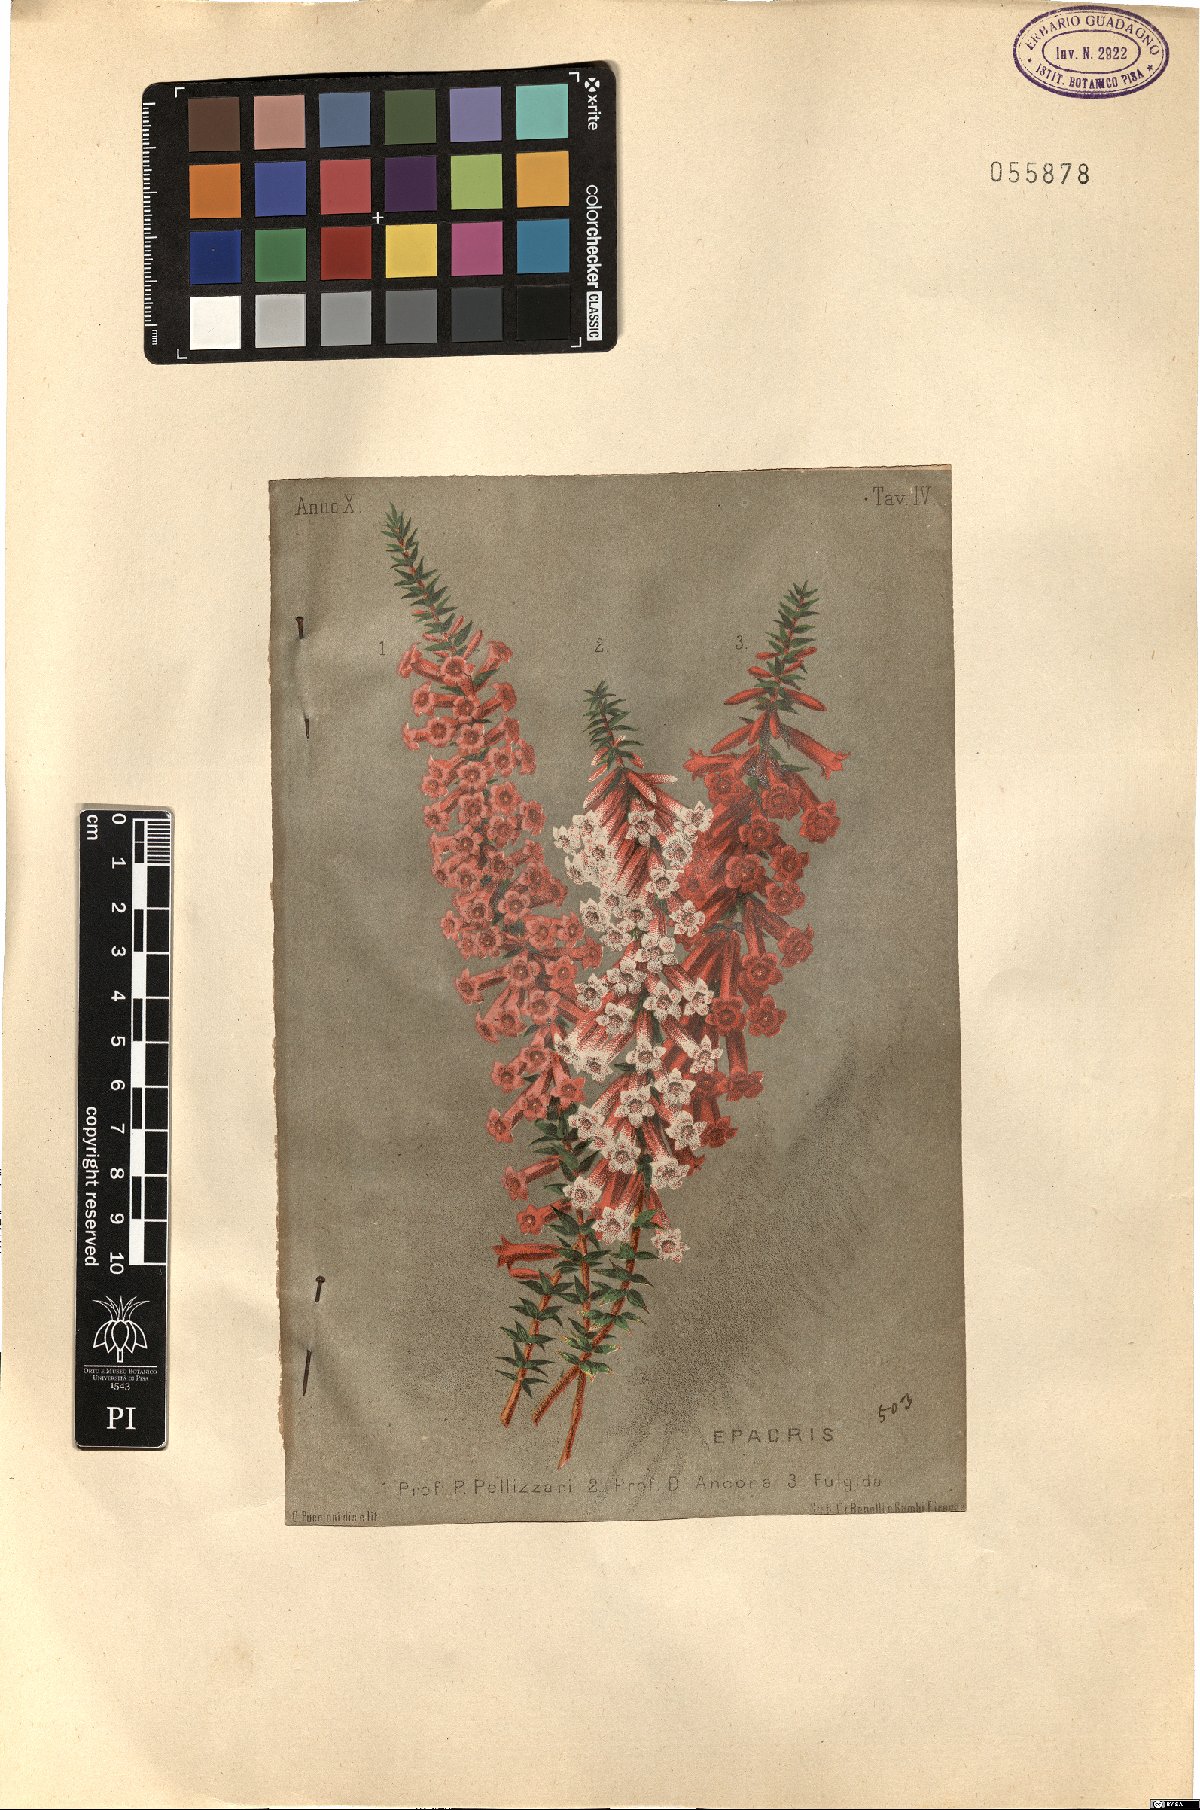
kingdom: Plantae
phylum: Tracheophyta
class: Magnoliopsida
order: Ericales
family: Ericaceae
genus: Epacris
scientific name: Epacris
